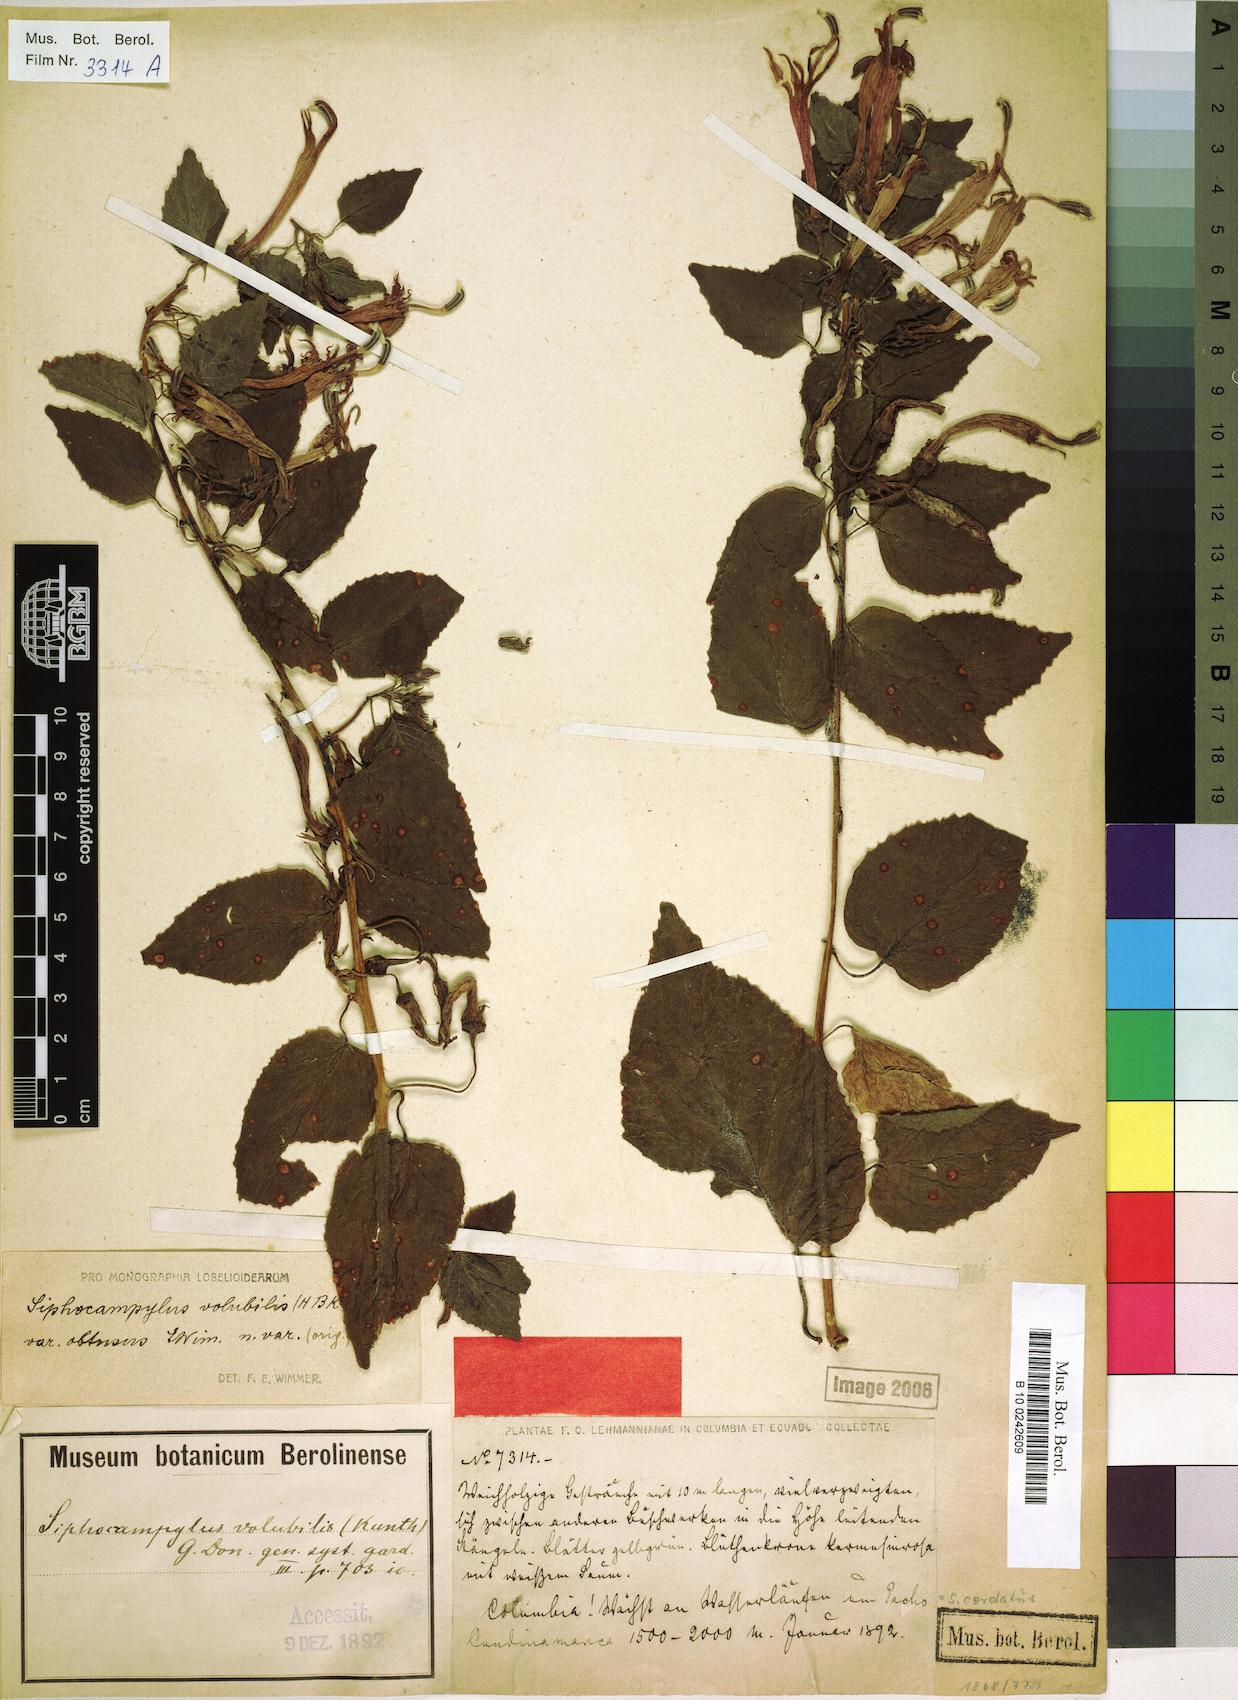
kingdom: Plantae
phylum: Tracheophyta
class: Magnoliopsida
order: Asterales
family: Campanulaceae
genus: Siphocampylus
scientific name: Siphocampylus cordatus
